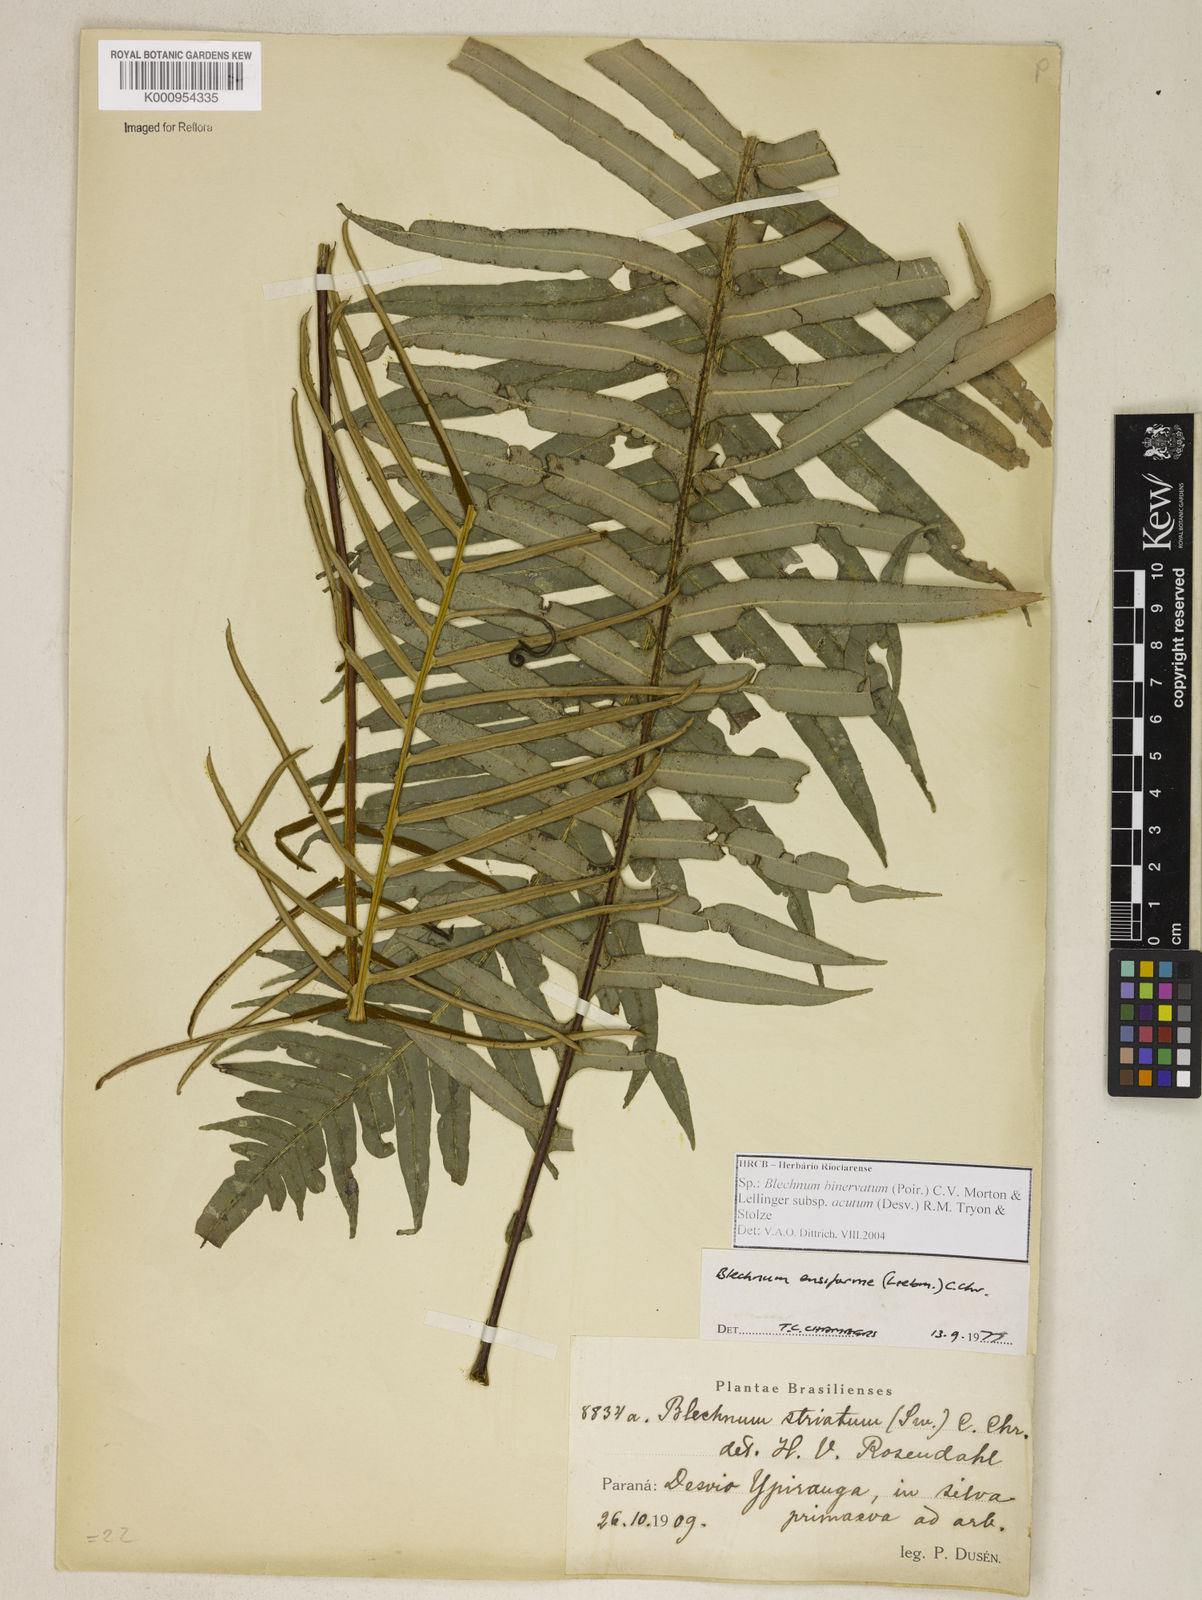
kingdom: Plantae
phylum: Tracheophyta
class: Polypodiopsida
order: Polypodiales
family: Blechnaceae
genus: Lomaridium
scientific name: Lomaridium ensiforme
